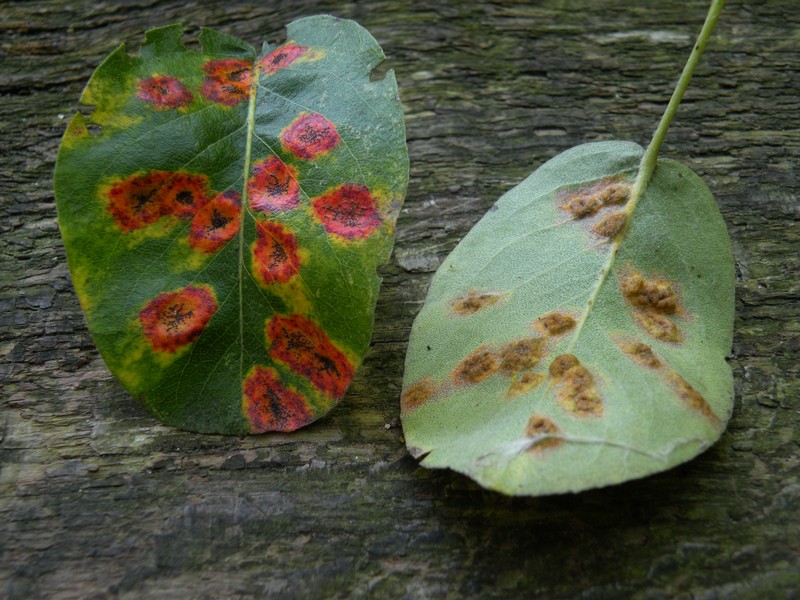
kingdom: Fungi
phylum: Basidiomycota
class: Pucciniomycetes
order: Pucciniales
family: Gymnosporangiaceae
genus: Gymnosporangium
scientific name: Gymnosporangium sabinae
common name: pæregitter-bævrerust
